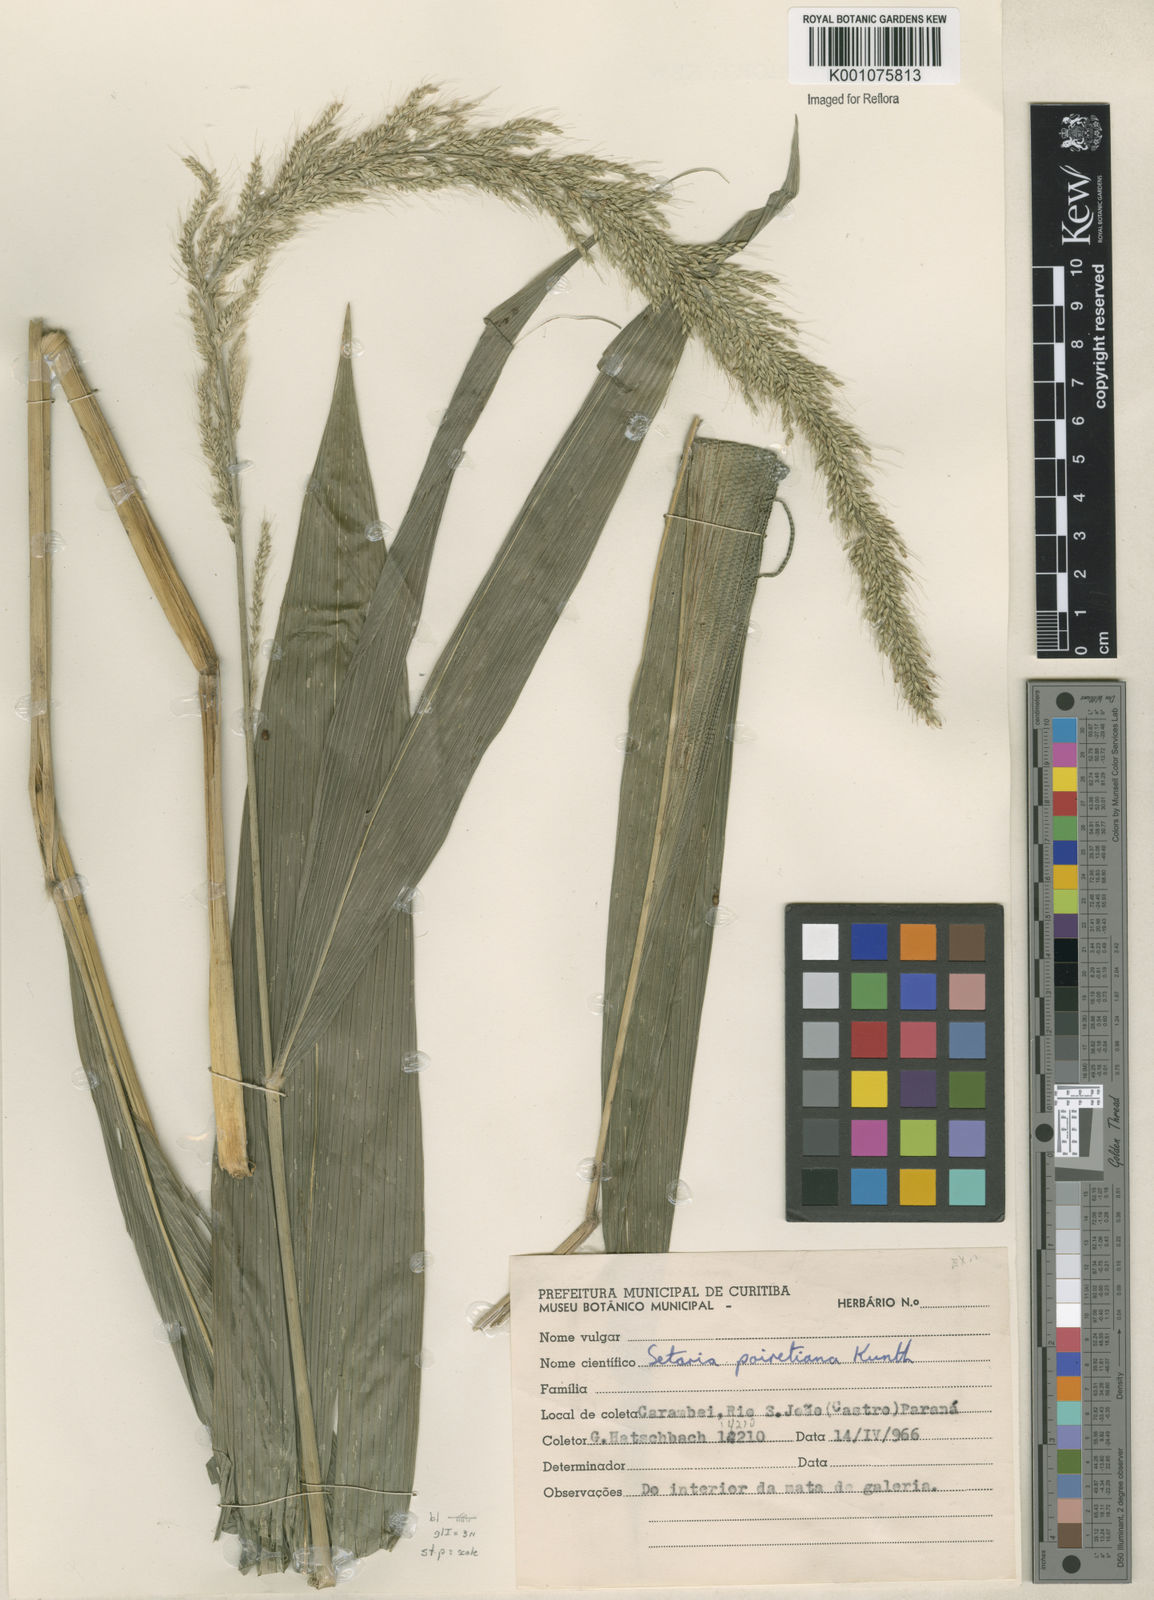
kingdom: Plantae
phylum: Tracheophyta
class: Liliopsida
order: Poales
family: Poaceae
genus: Setaria
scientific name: Setaria megaphylla
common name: Bigleaf bristlegrass
